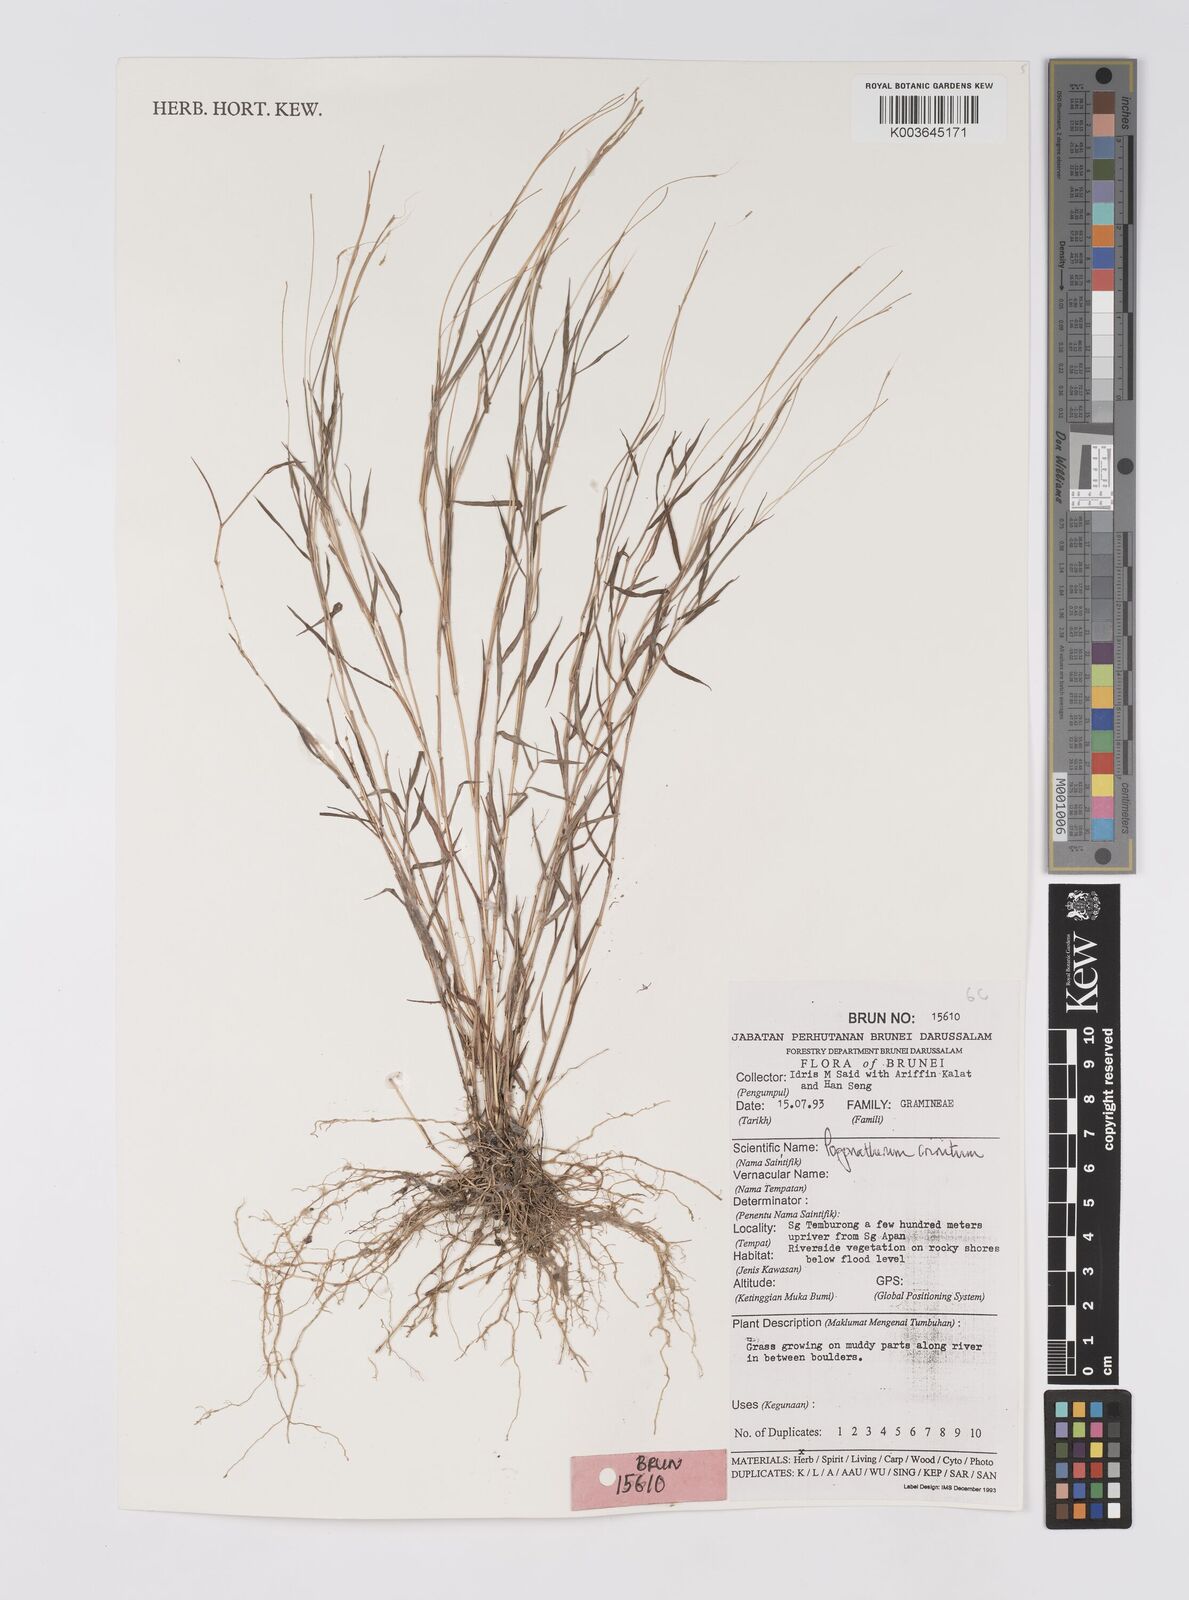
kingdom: Plantae
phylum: Tracheophyta
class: Liliopsida
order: Poales
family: Poaceae
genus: Pogonatherum
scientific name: Pogonatherum crinitum
